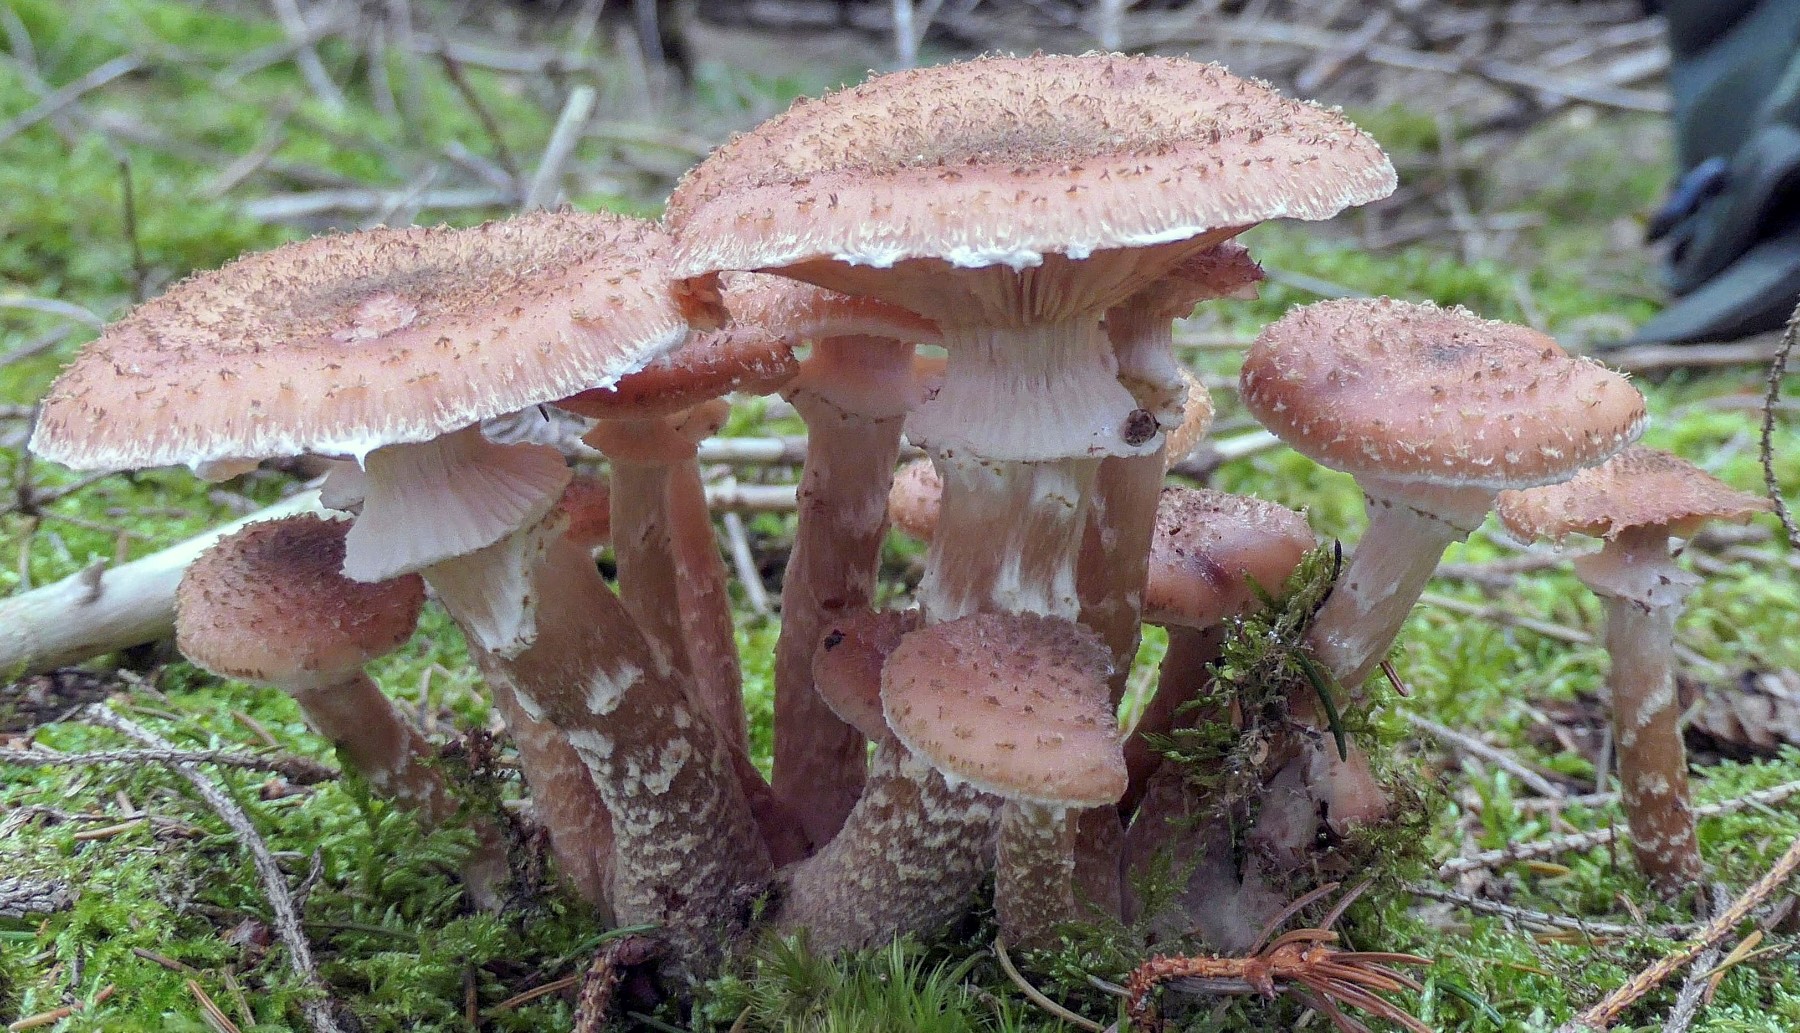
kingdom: Fungi
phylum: Basidiomycota
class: Agaricomycetes
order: Agaricales
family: Physalacriaceae
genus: Armillaria
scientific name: Armillaria ostoyae
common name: mørk honningsvamp
